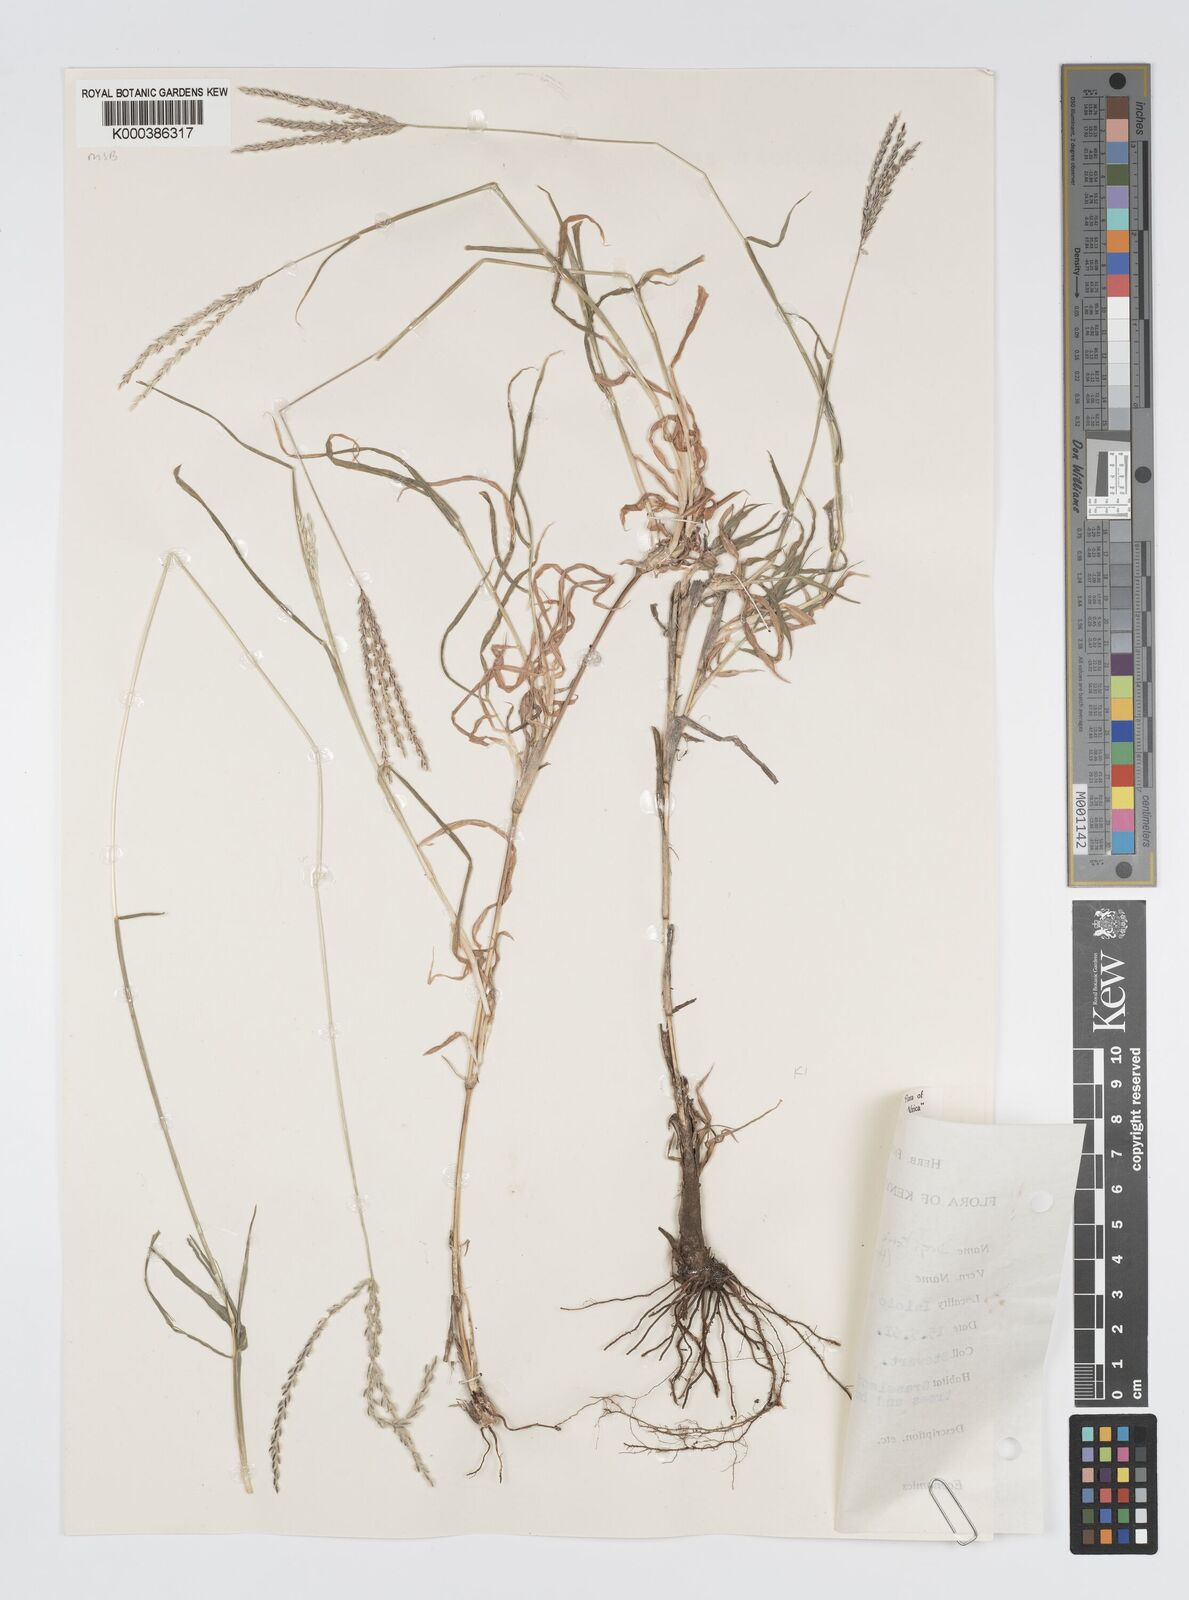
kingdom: Plantae
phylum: Tracheophyta
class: Liliopsida
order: Poales
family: Poaceae
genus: Digitaria
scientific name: Digitaria macroblephara
